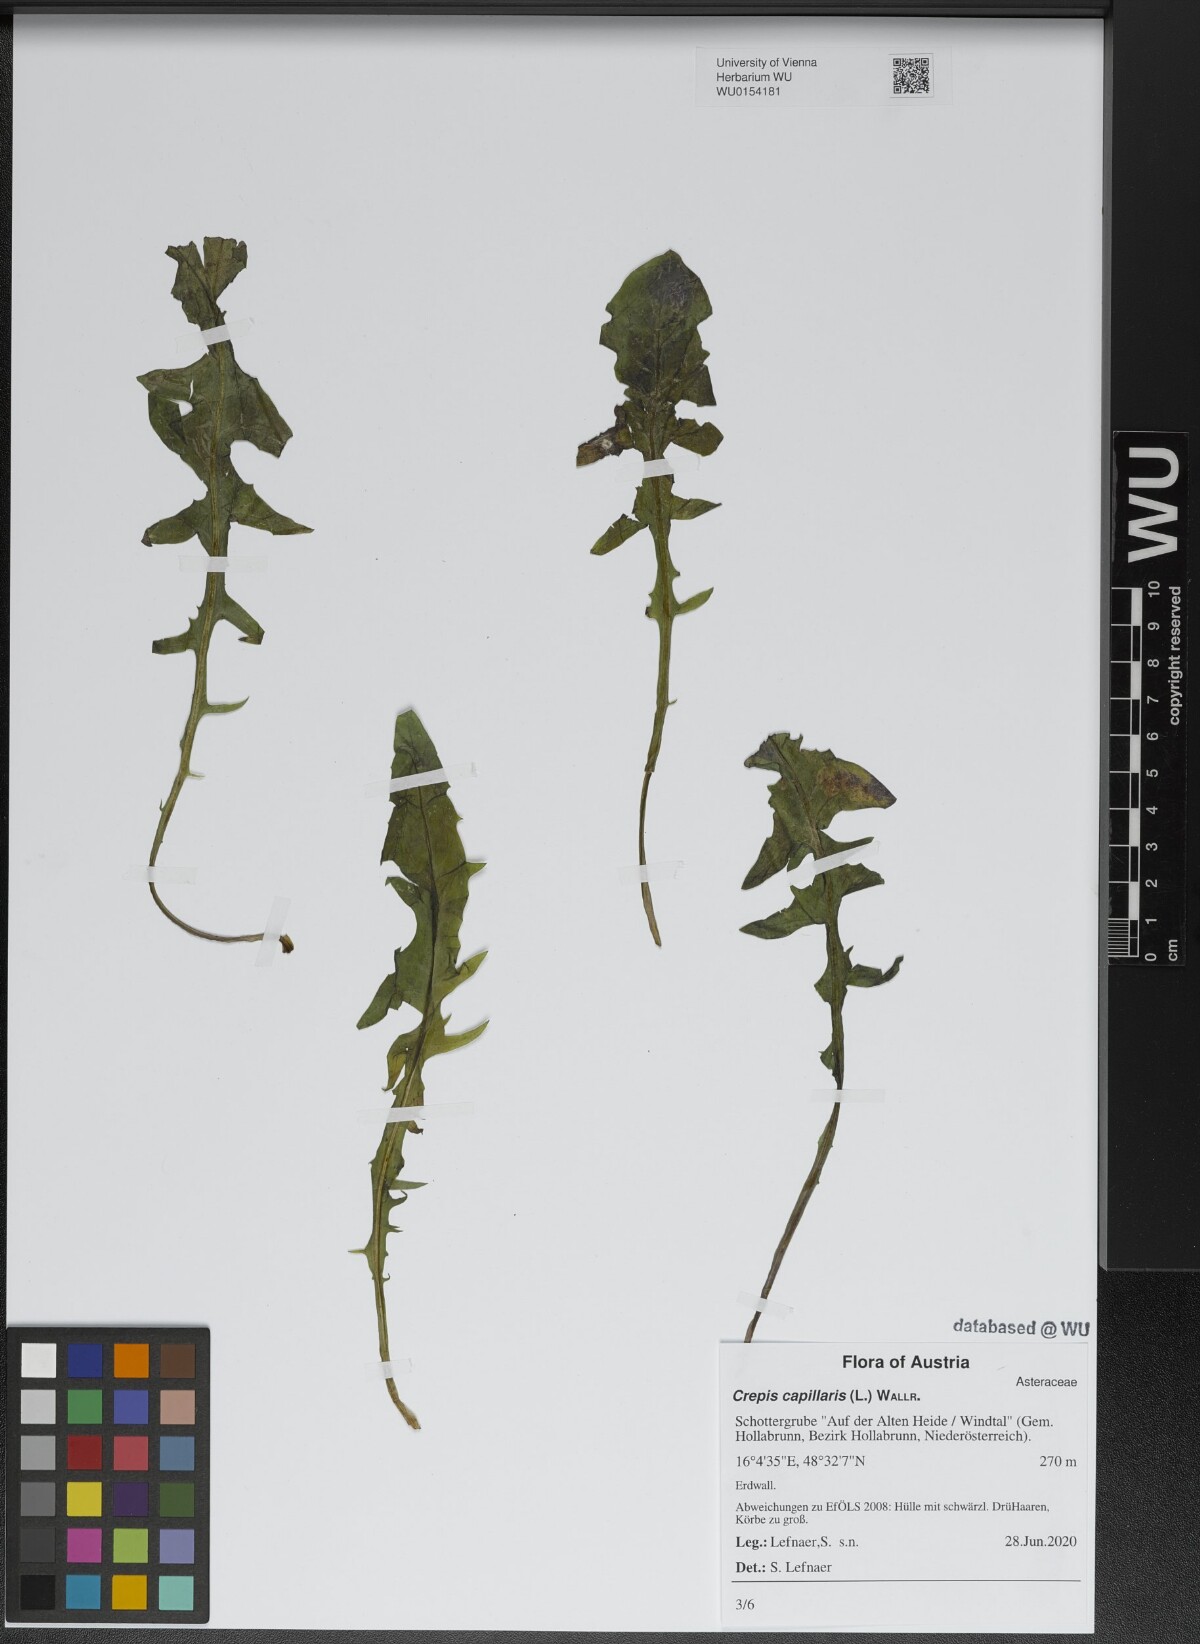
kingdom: Plantae
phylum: Tracheophyta
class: Magnoliopsida
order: Asterales
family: Asteraceae
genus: Crepis
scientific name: Crepis capillaris
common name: Smooth hawksbeard
